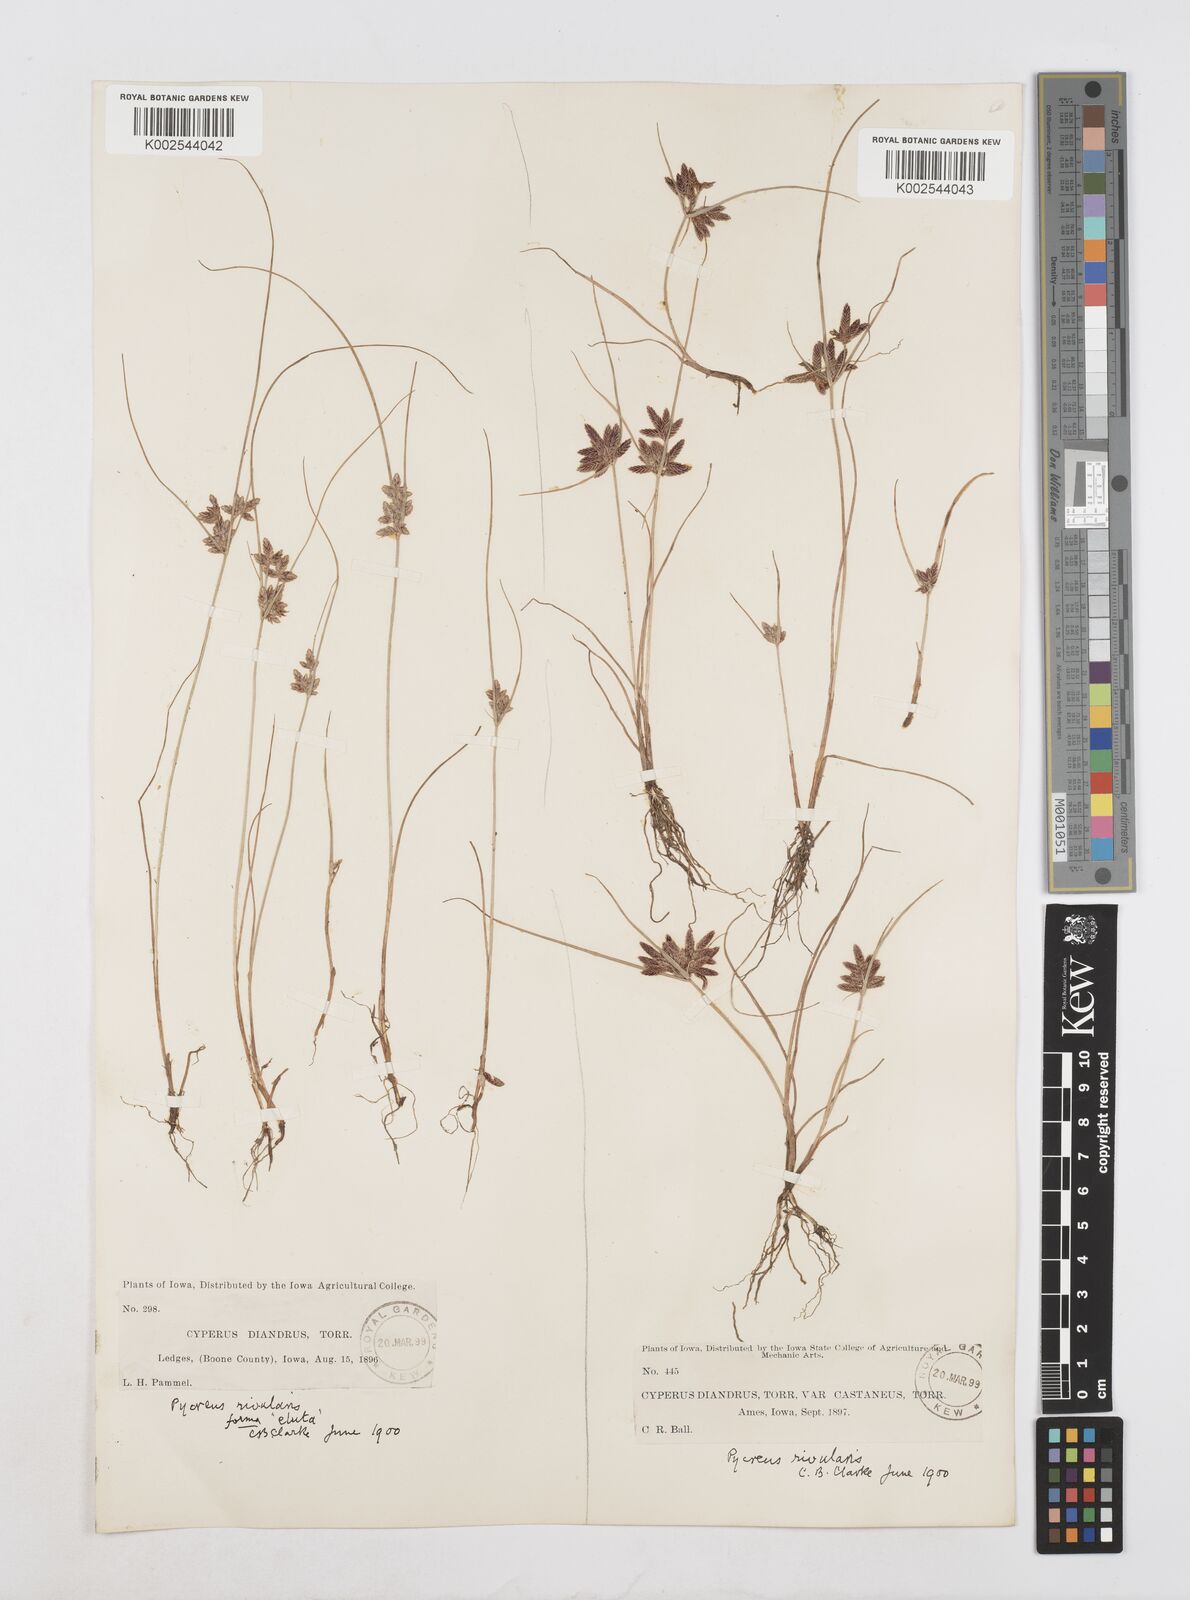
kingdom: Plantae
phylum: Tracheophyta
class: Liliopsida
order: Poales
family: Cyperaceae
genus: Cyperus
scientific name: Cyperus bipartitus
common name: Brook flatsedge
